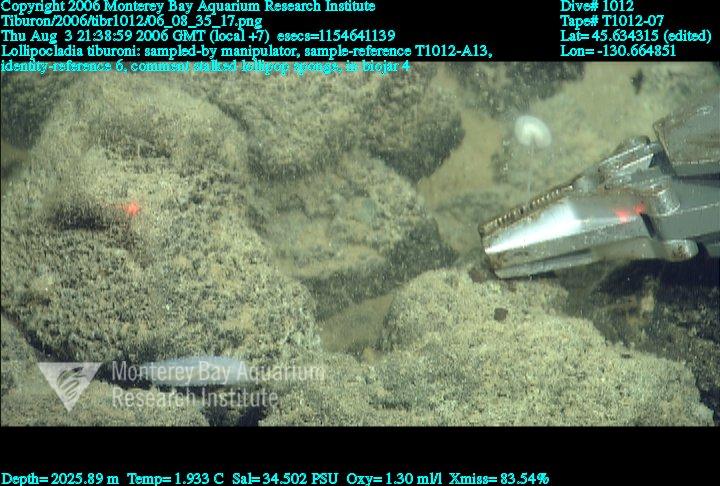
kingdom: Animalia
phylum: Porifera
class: Demospongiae
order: Poecilosclerida
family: Cladorhizidae
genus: Lollipocladia
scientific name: Lollipocladia tiburoni
